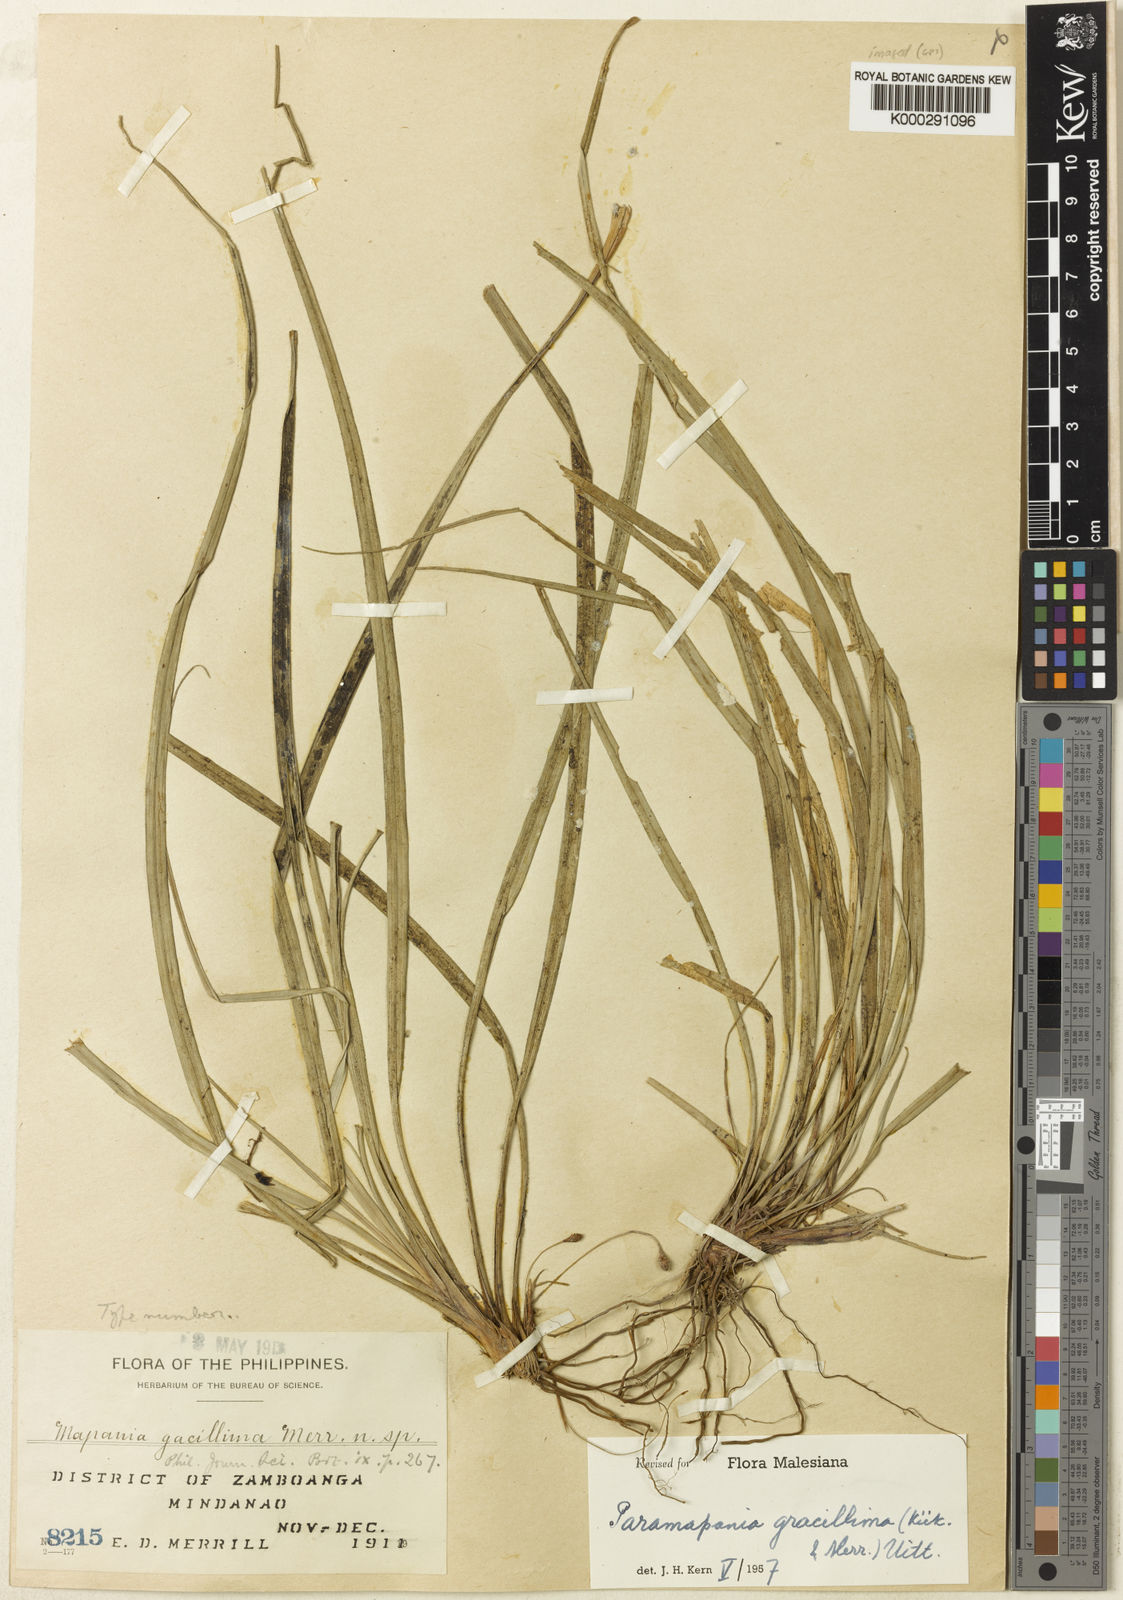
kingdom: Plantae
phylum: Tracheophyta
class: Liliopsida
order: Poales
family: Cyperaceae
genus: Paramapania
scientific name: Paramapania
